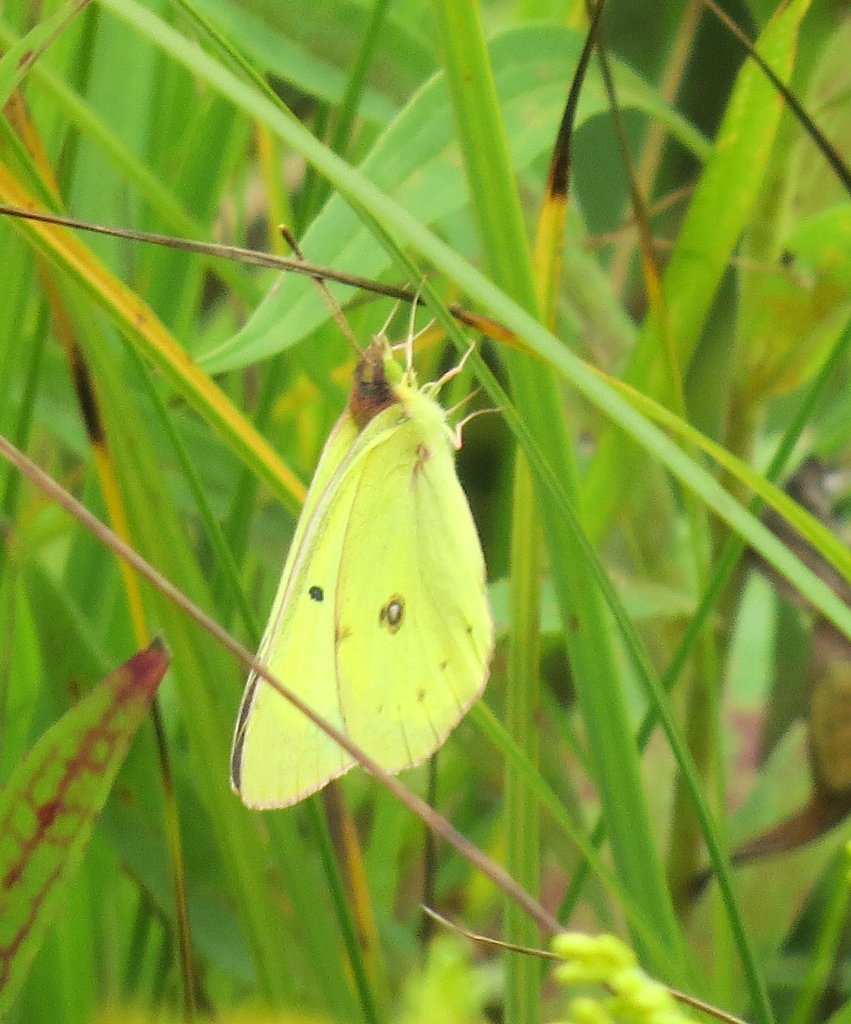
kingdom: Animalia
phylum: Arthropoda
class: Insecta
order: Lepidoptera
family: Pieridae
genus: Colias
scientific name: Colias philodice
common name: Clouded Sulphur
